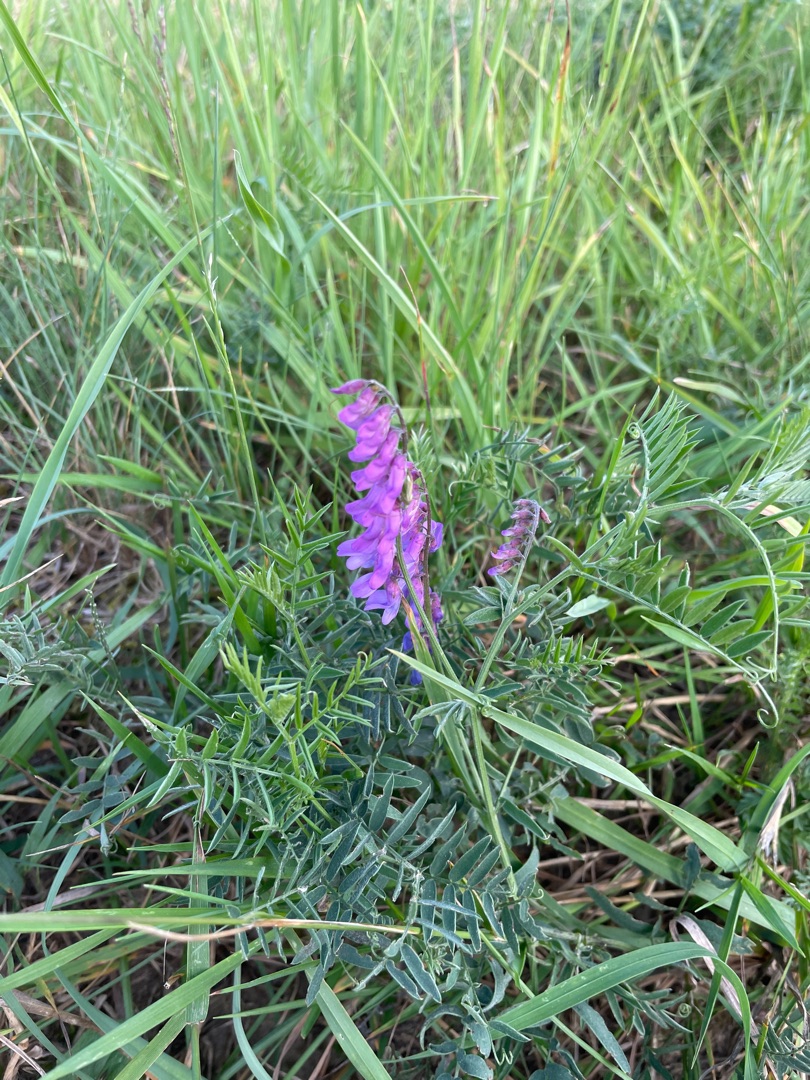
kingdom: Plantae
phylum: Tracheophyta
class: Magnoliopsida
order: Fabales
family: Fabaceae
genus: Vicia
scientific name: Vicia cracca
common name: Muse-vikke
